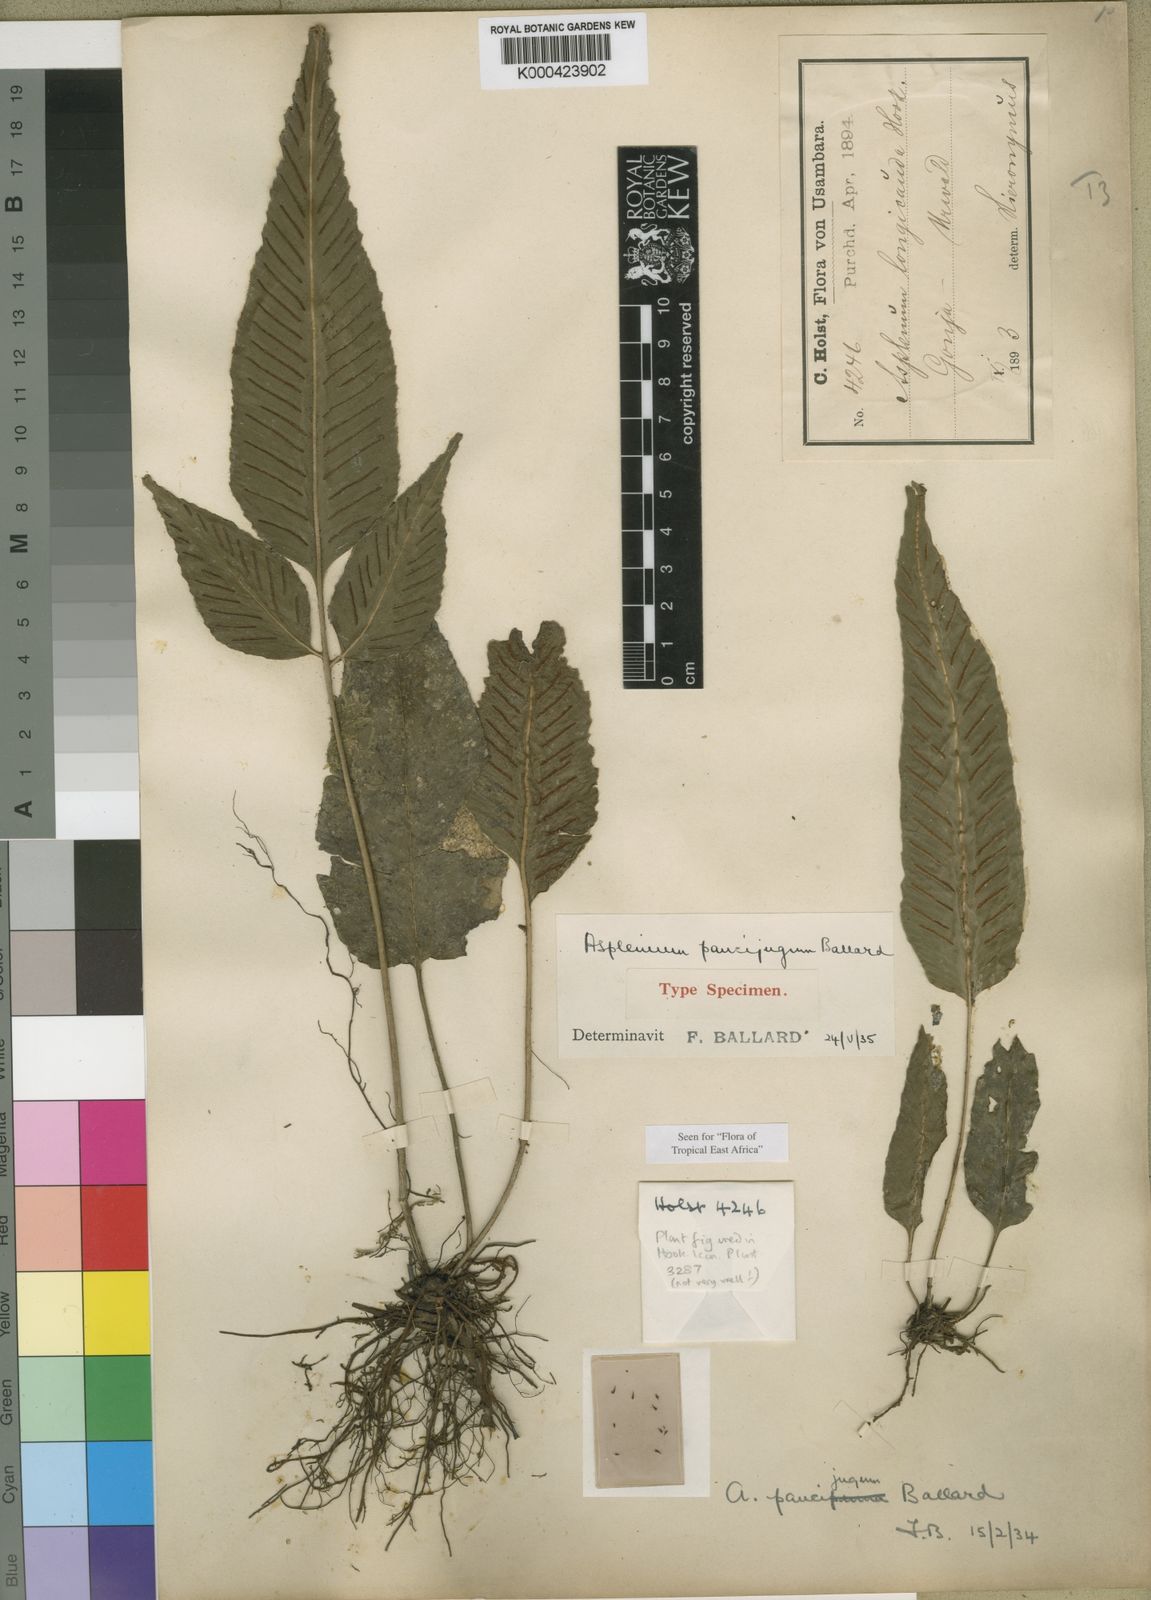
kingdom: Plantae
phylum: Tracheophyta
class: Polypodiopsida
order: Polypodiales
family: Aspleniaceae
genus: Asplenium
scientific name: Asplenium variabile
